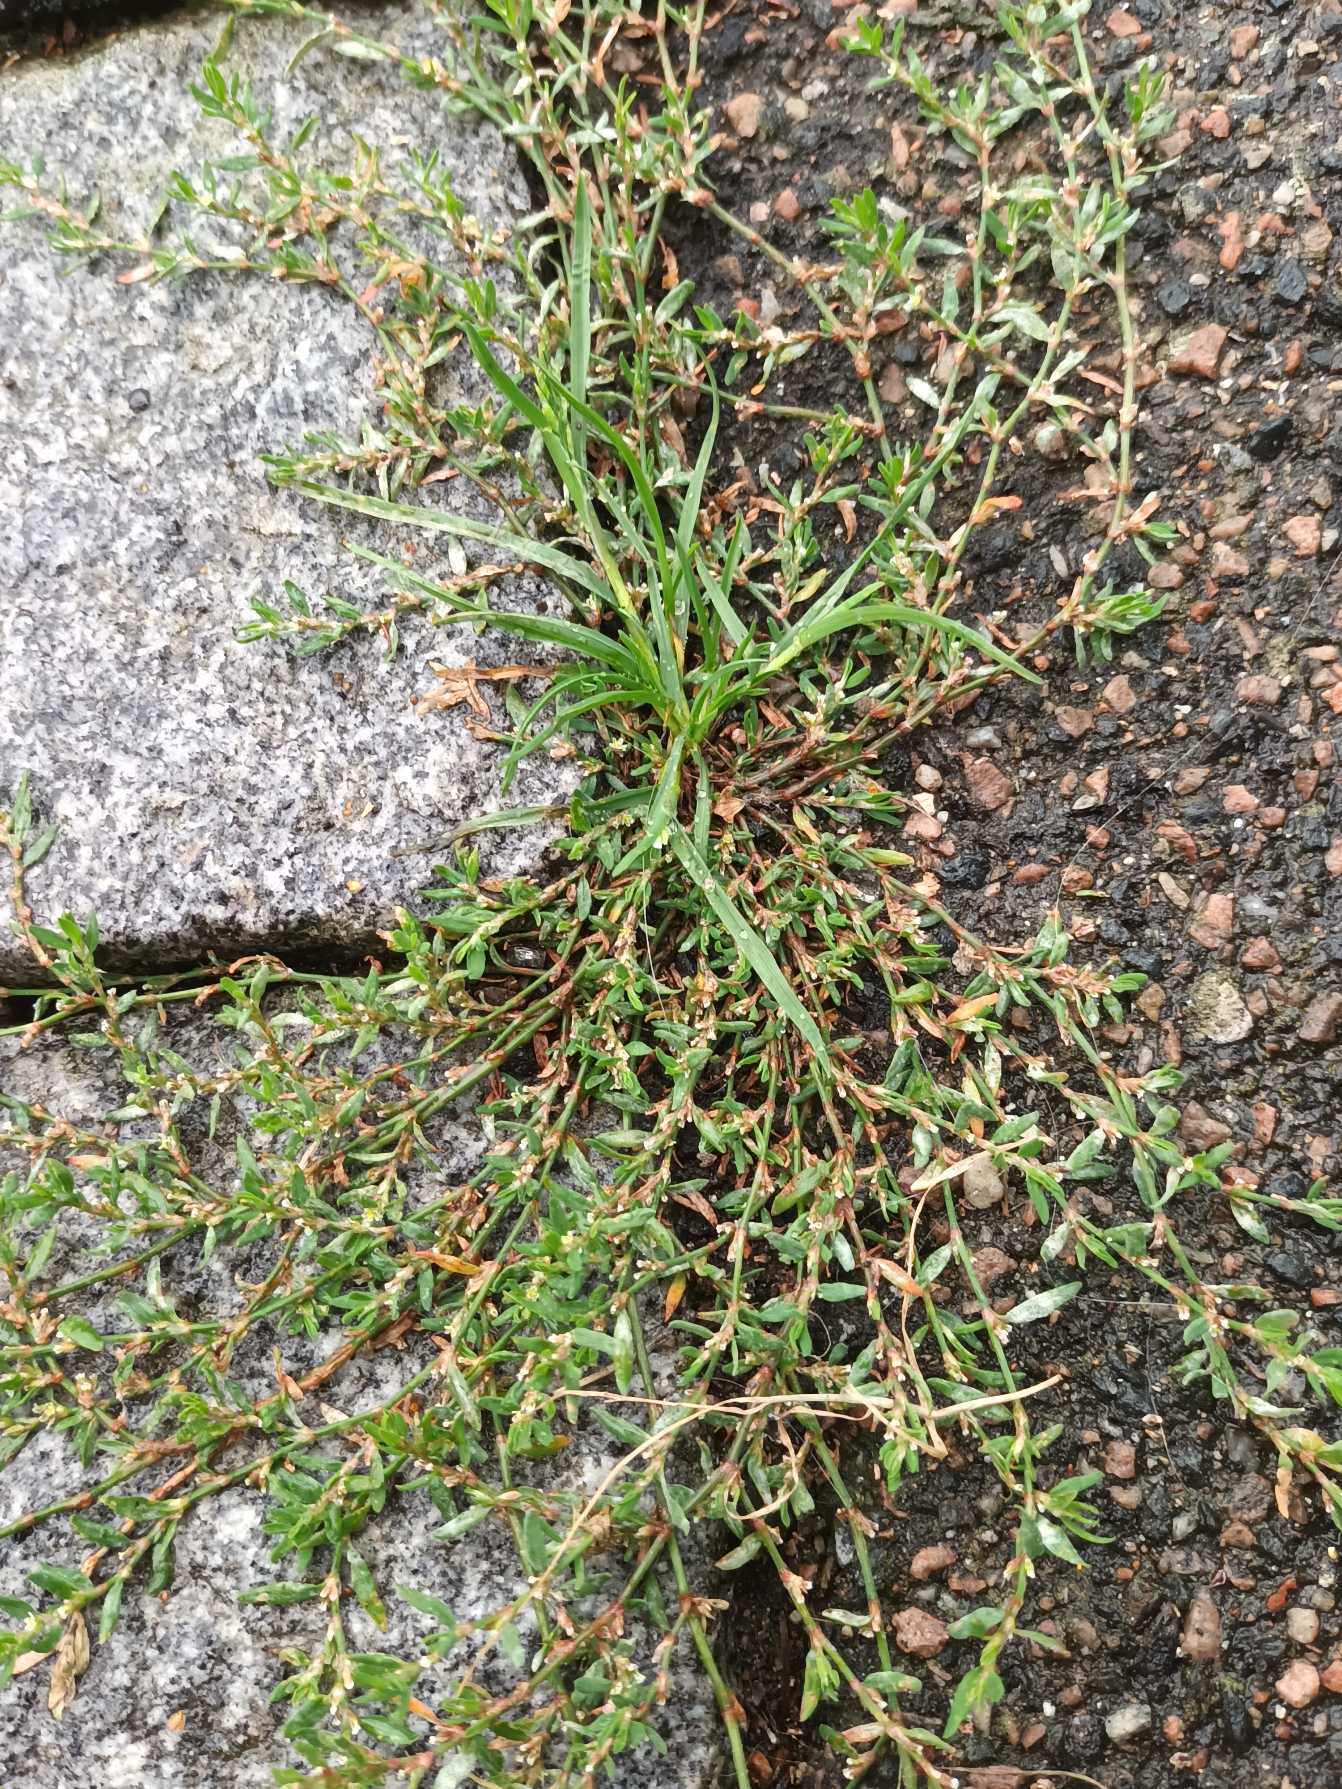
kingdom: Plantae
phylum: Tracheophyta
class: Magnoliopsida
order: Caryophyllales
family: Polygonaceae
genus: Polygonum
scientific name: Polygonum arenastrum
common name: Liggende vej-pileurt
